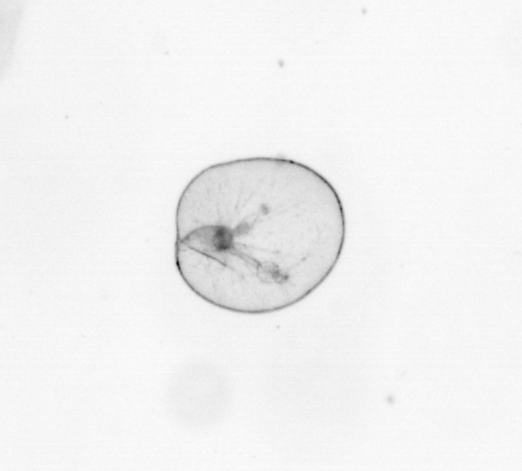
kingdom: Chromista
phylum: Myzozoa
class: Dinophyceae
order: Noctilucales
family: Noctilucaceae
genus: Noctiluca
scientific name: Noctiluca scintillans
